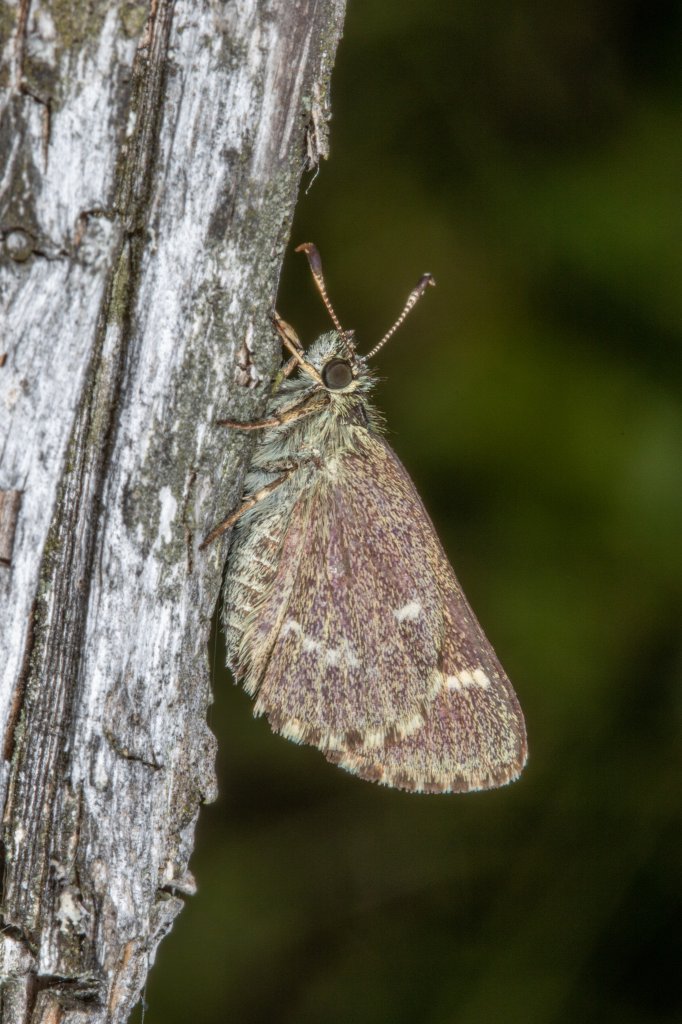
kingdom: Animalia
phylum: Arthropoda
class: Insecta
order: Lepidoptera
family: Hesperiidae
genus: Mastor
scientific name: Mastor hegon
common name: Pepper and Salt Skipper
